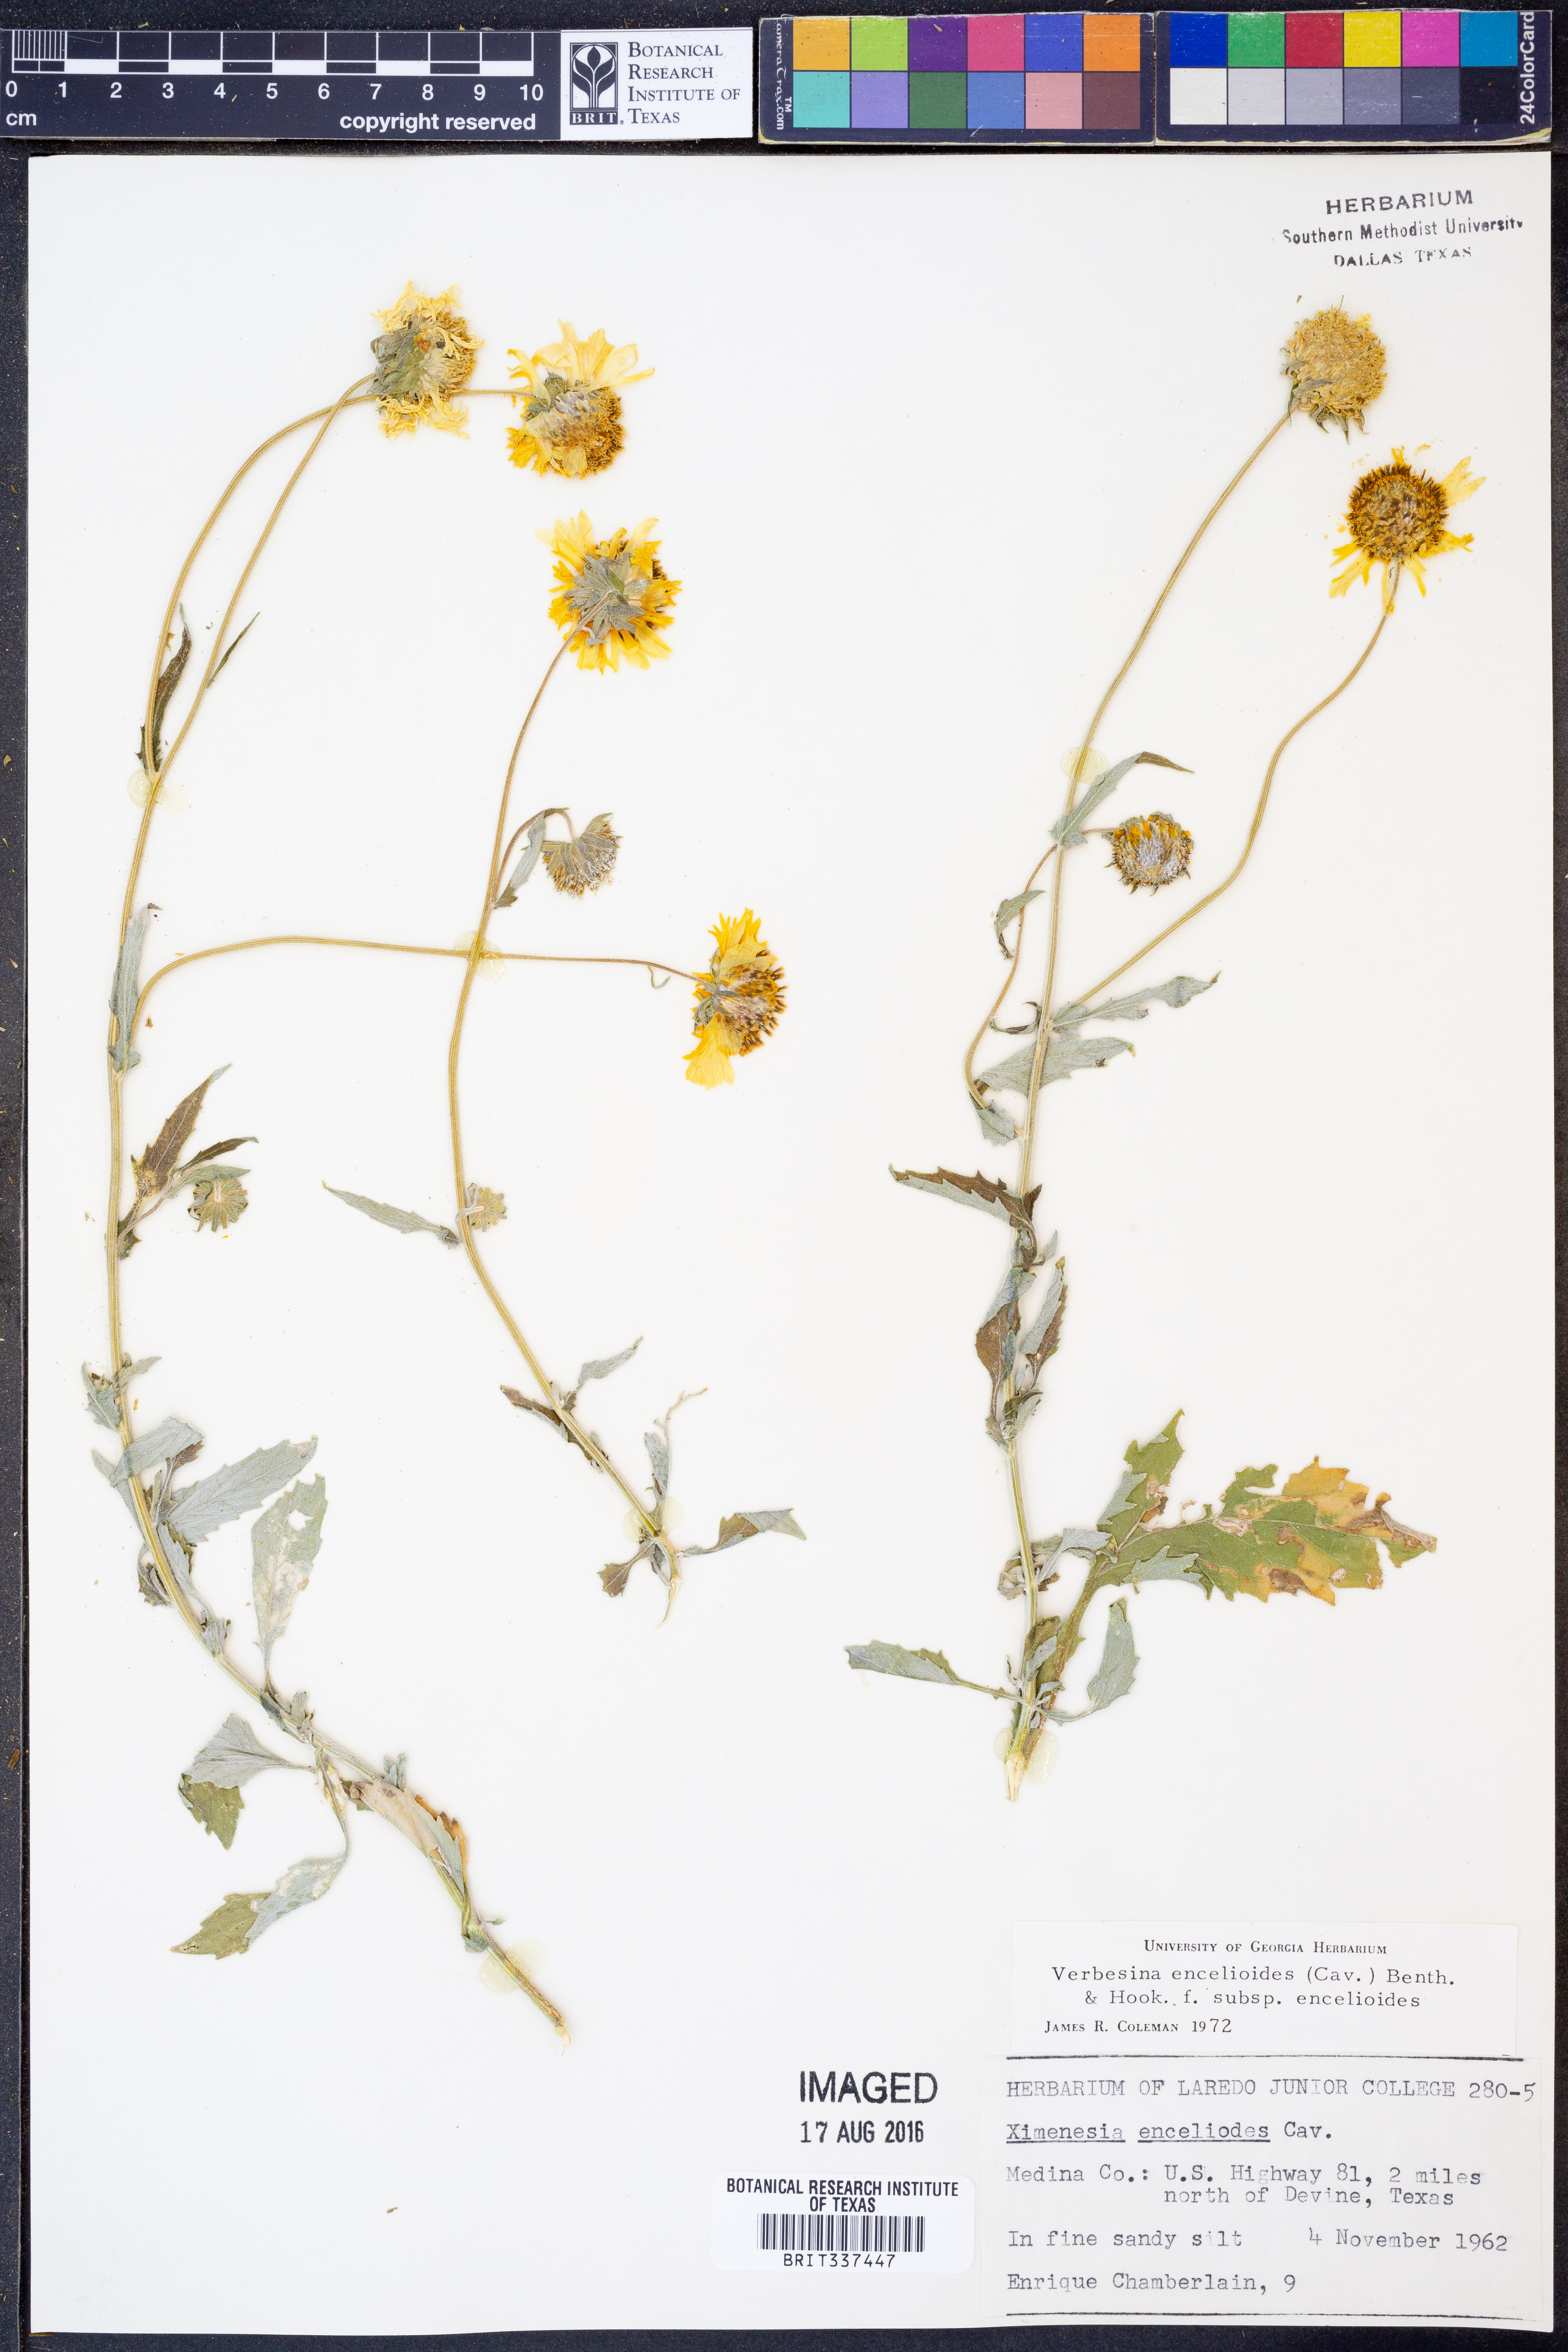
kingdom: Plantae
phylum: Tracheophyta
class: Magnoliopsida
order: Asterales
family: Asteraceae
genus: Verbesina
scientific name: Verbesina encelioides
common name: Golden crownbeard
